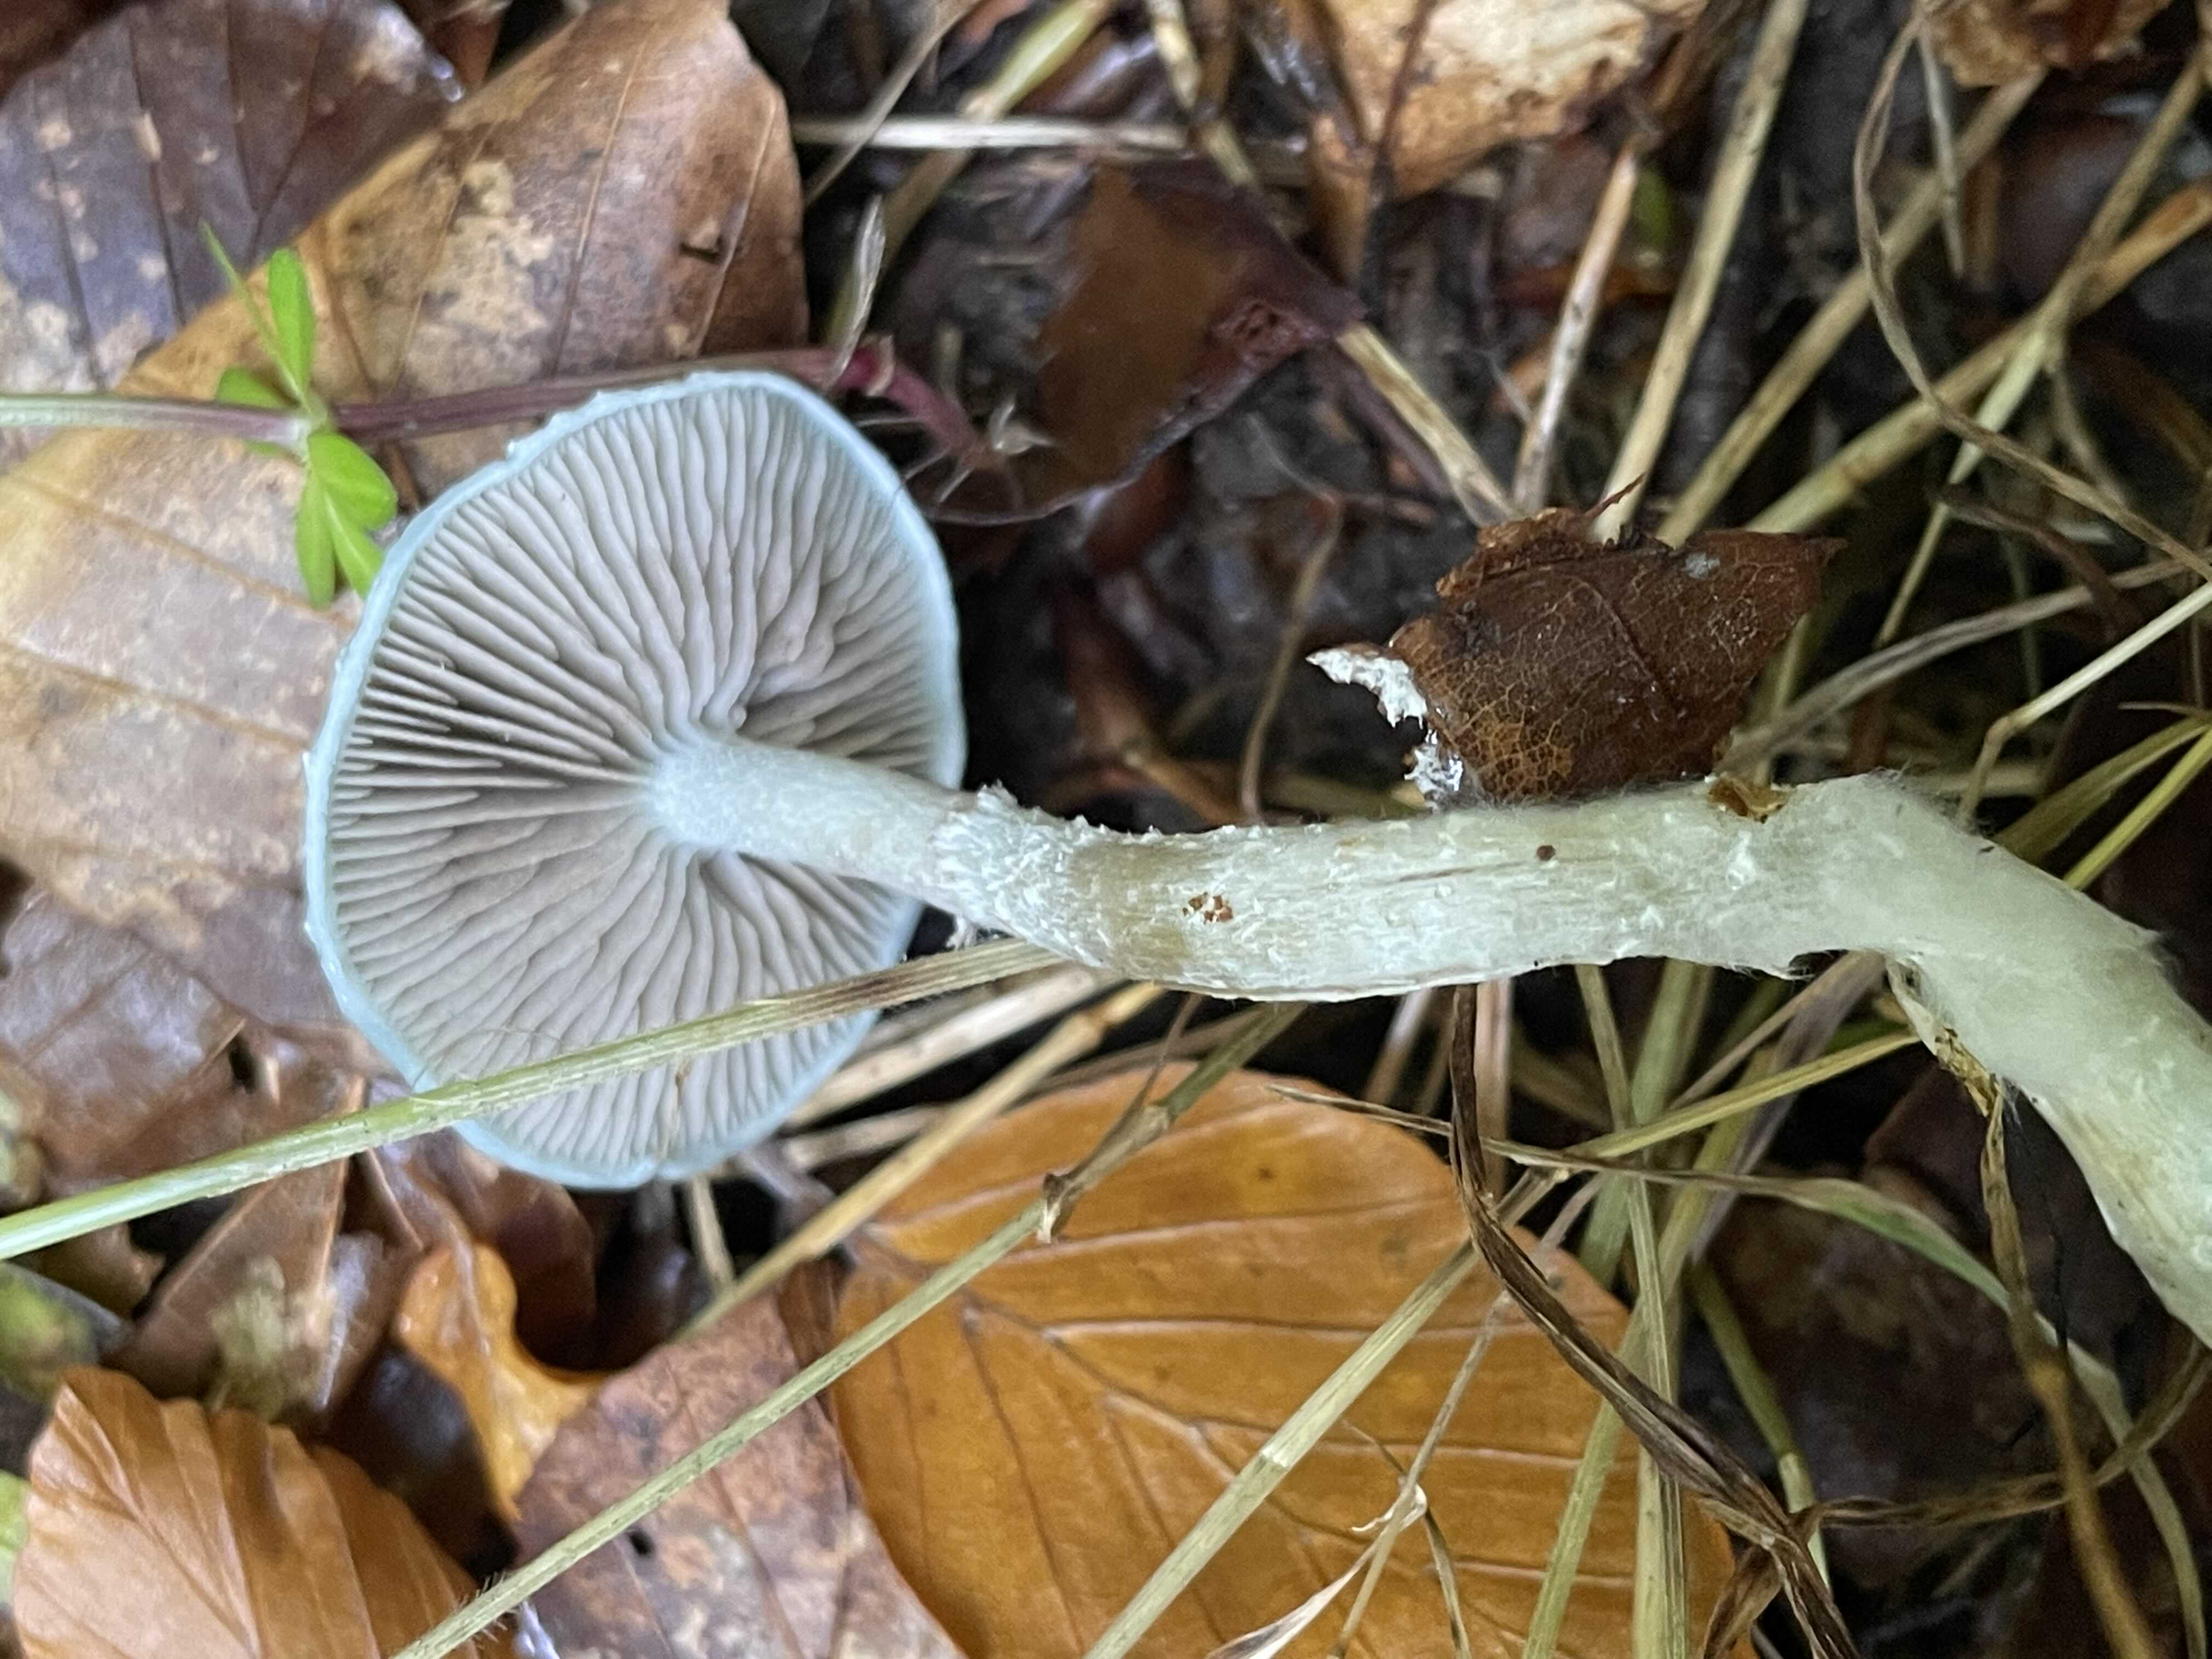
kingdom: Fungi
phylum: Basidiomycota
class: Agaricomycetes
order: Agaricales
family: Strophariaceae
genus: Stropharia
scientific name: Stropharia cyanea
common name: blågrøn bredblad
